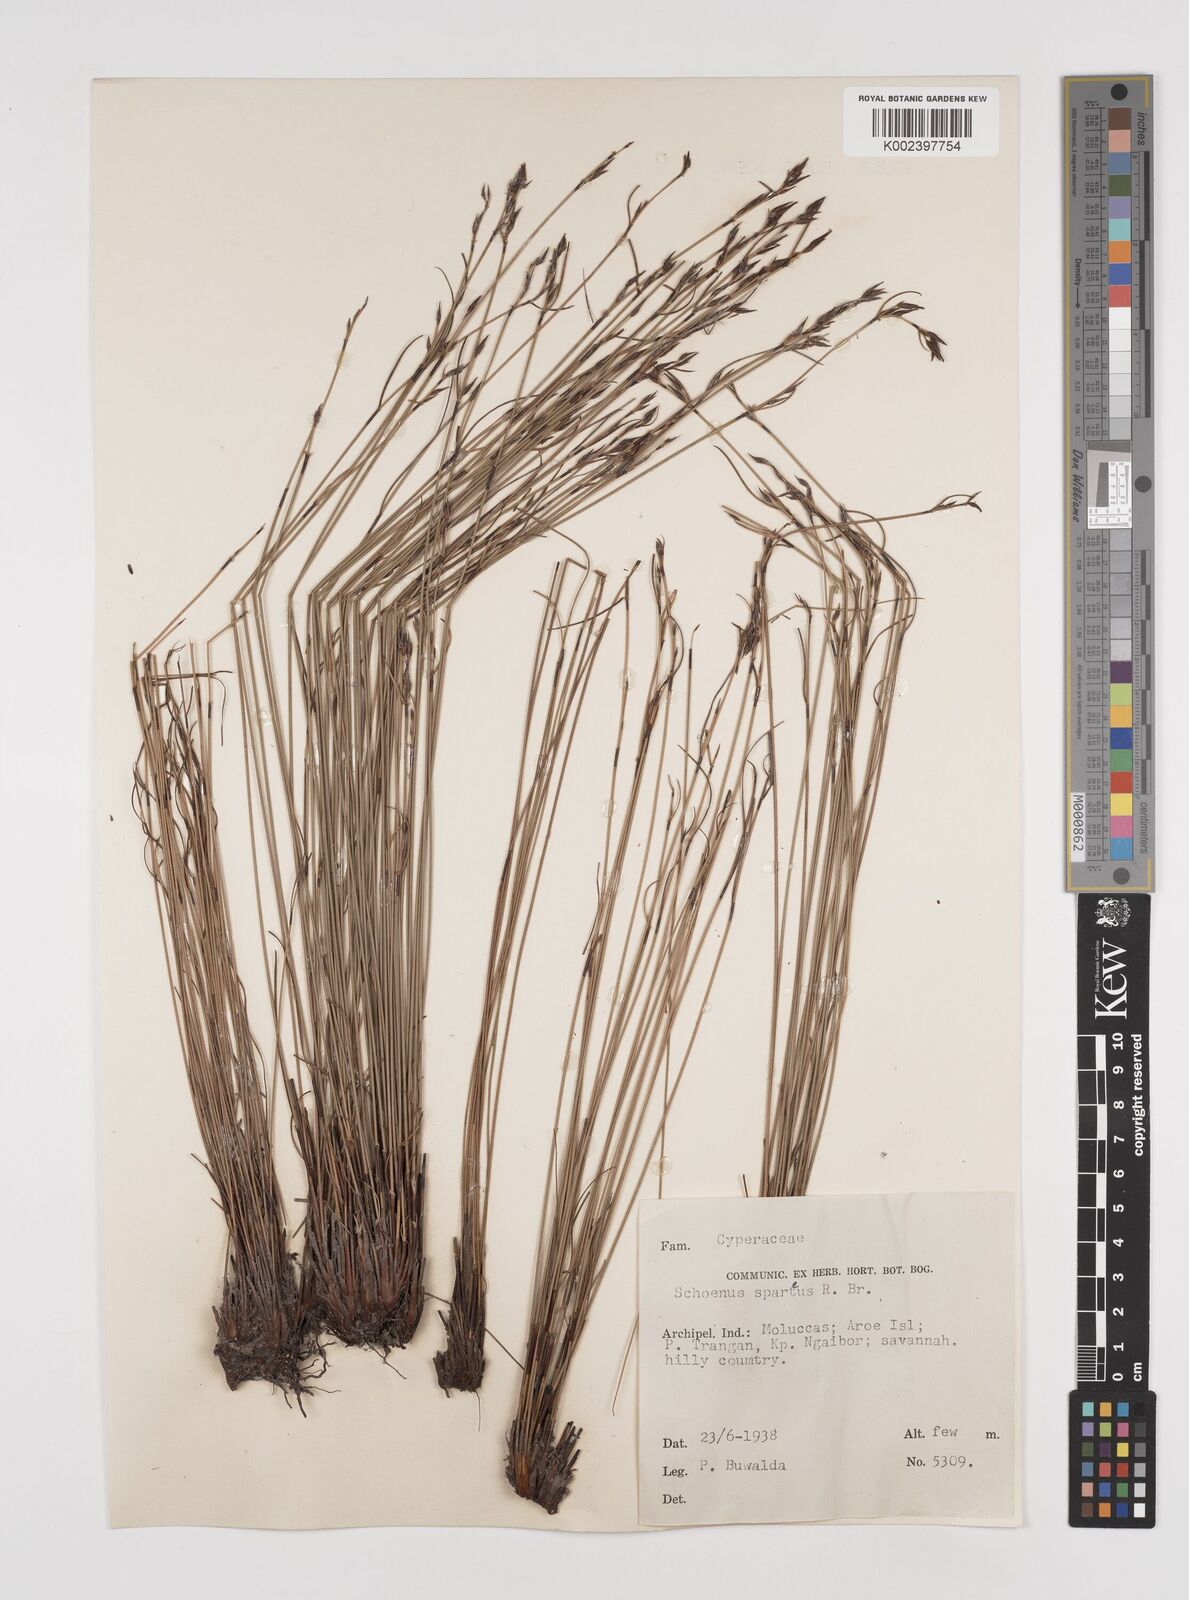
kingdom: Plantae
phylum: Tracheophyta
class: Liliopsida
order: Poales
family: Cyperaceae
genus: Schoenus
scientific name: Schoenus sparteus
